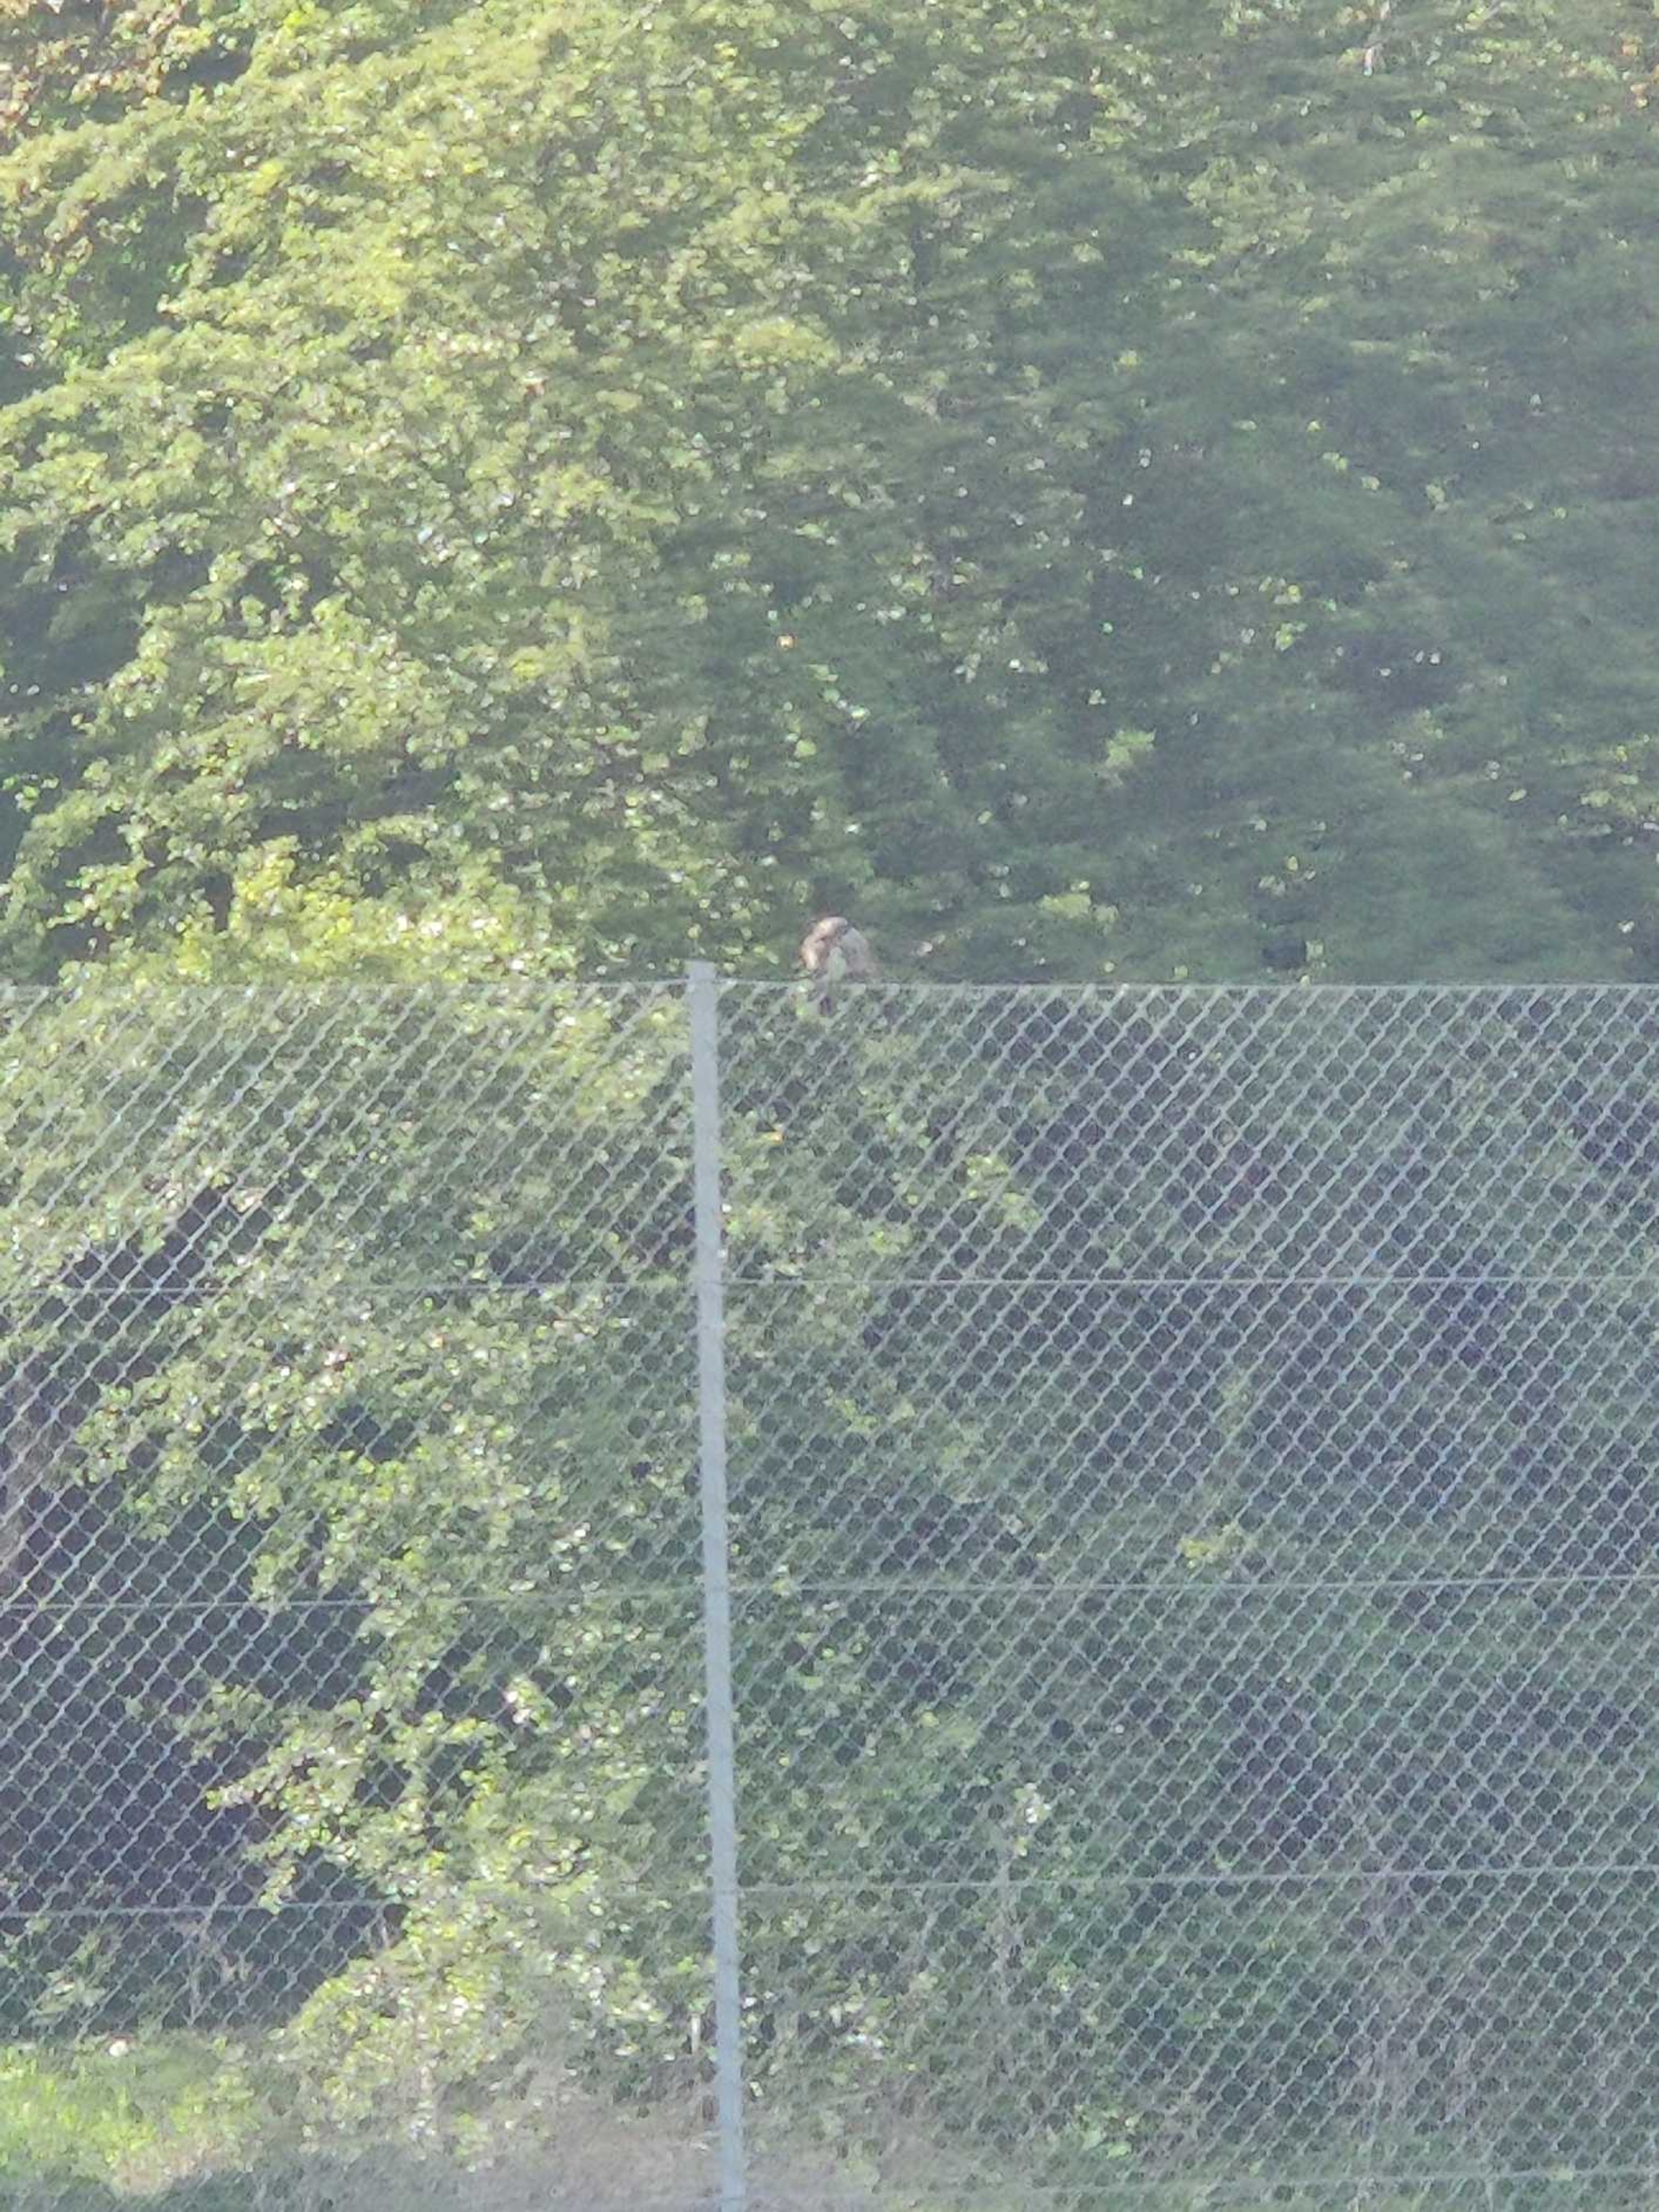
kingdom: Animalia
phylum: Chordata
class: Aves
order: Passeriformes
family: Turdidae
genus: Turdus
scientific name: Turdus pilaris
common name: Sjagger
